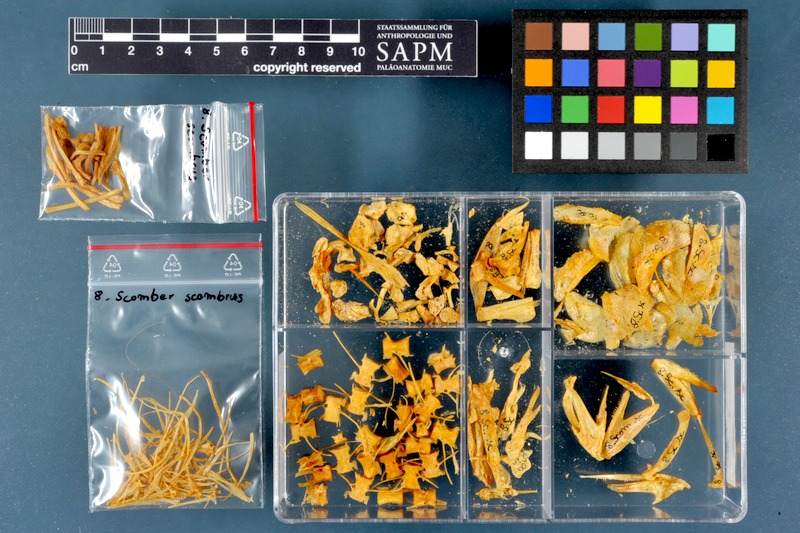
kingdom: Animalia
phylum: Chordata
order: Perciformes
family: Scombridae
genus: Scomber
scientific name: Scomber scombrus
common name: Mackerel
